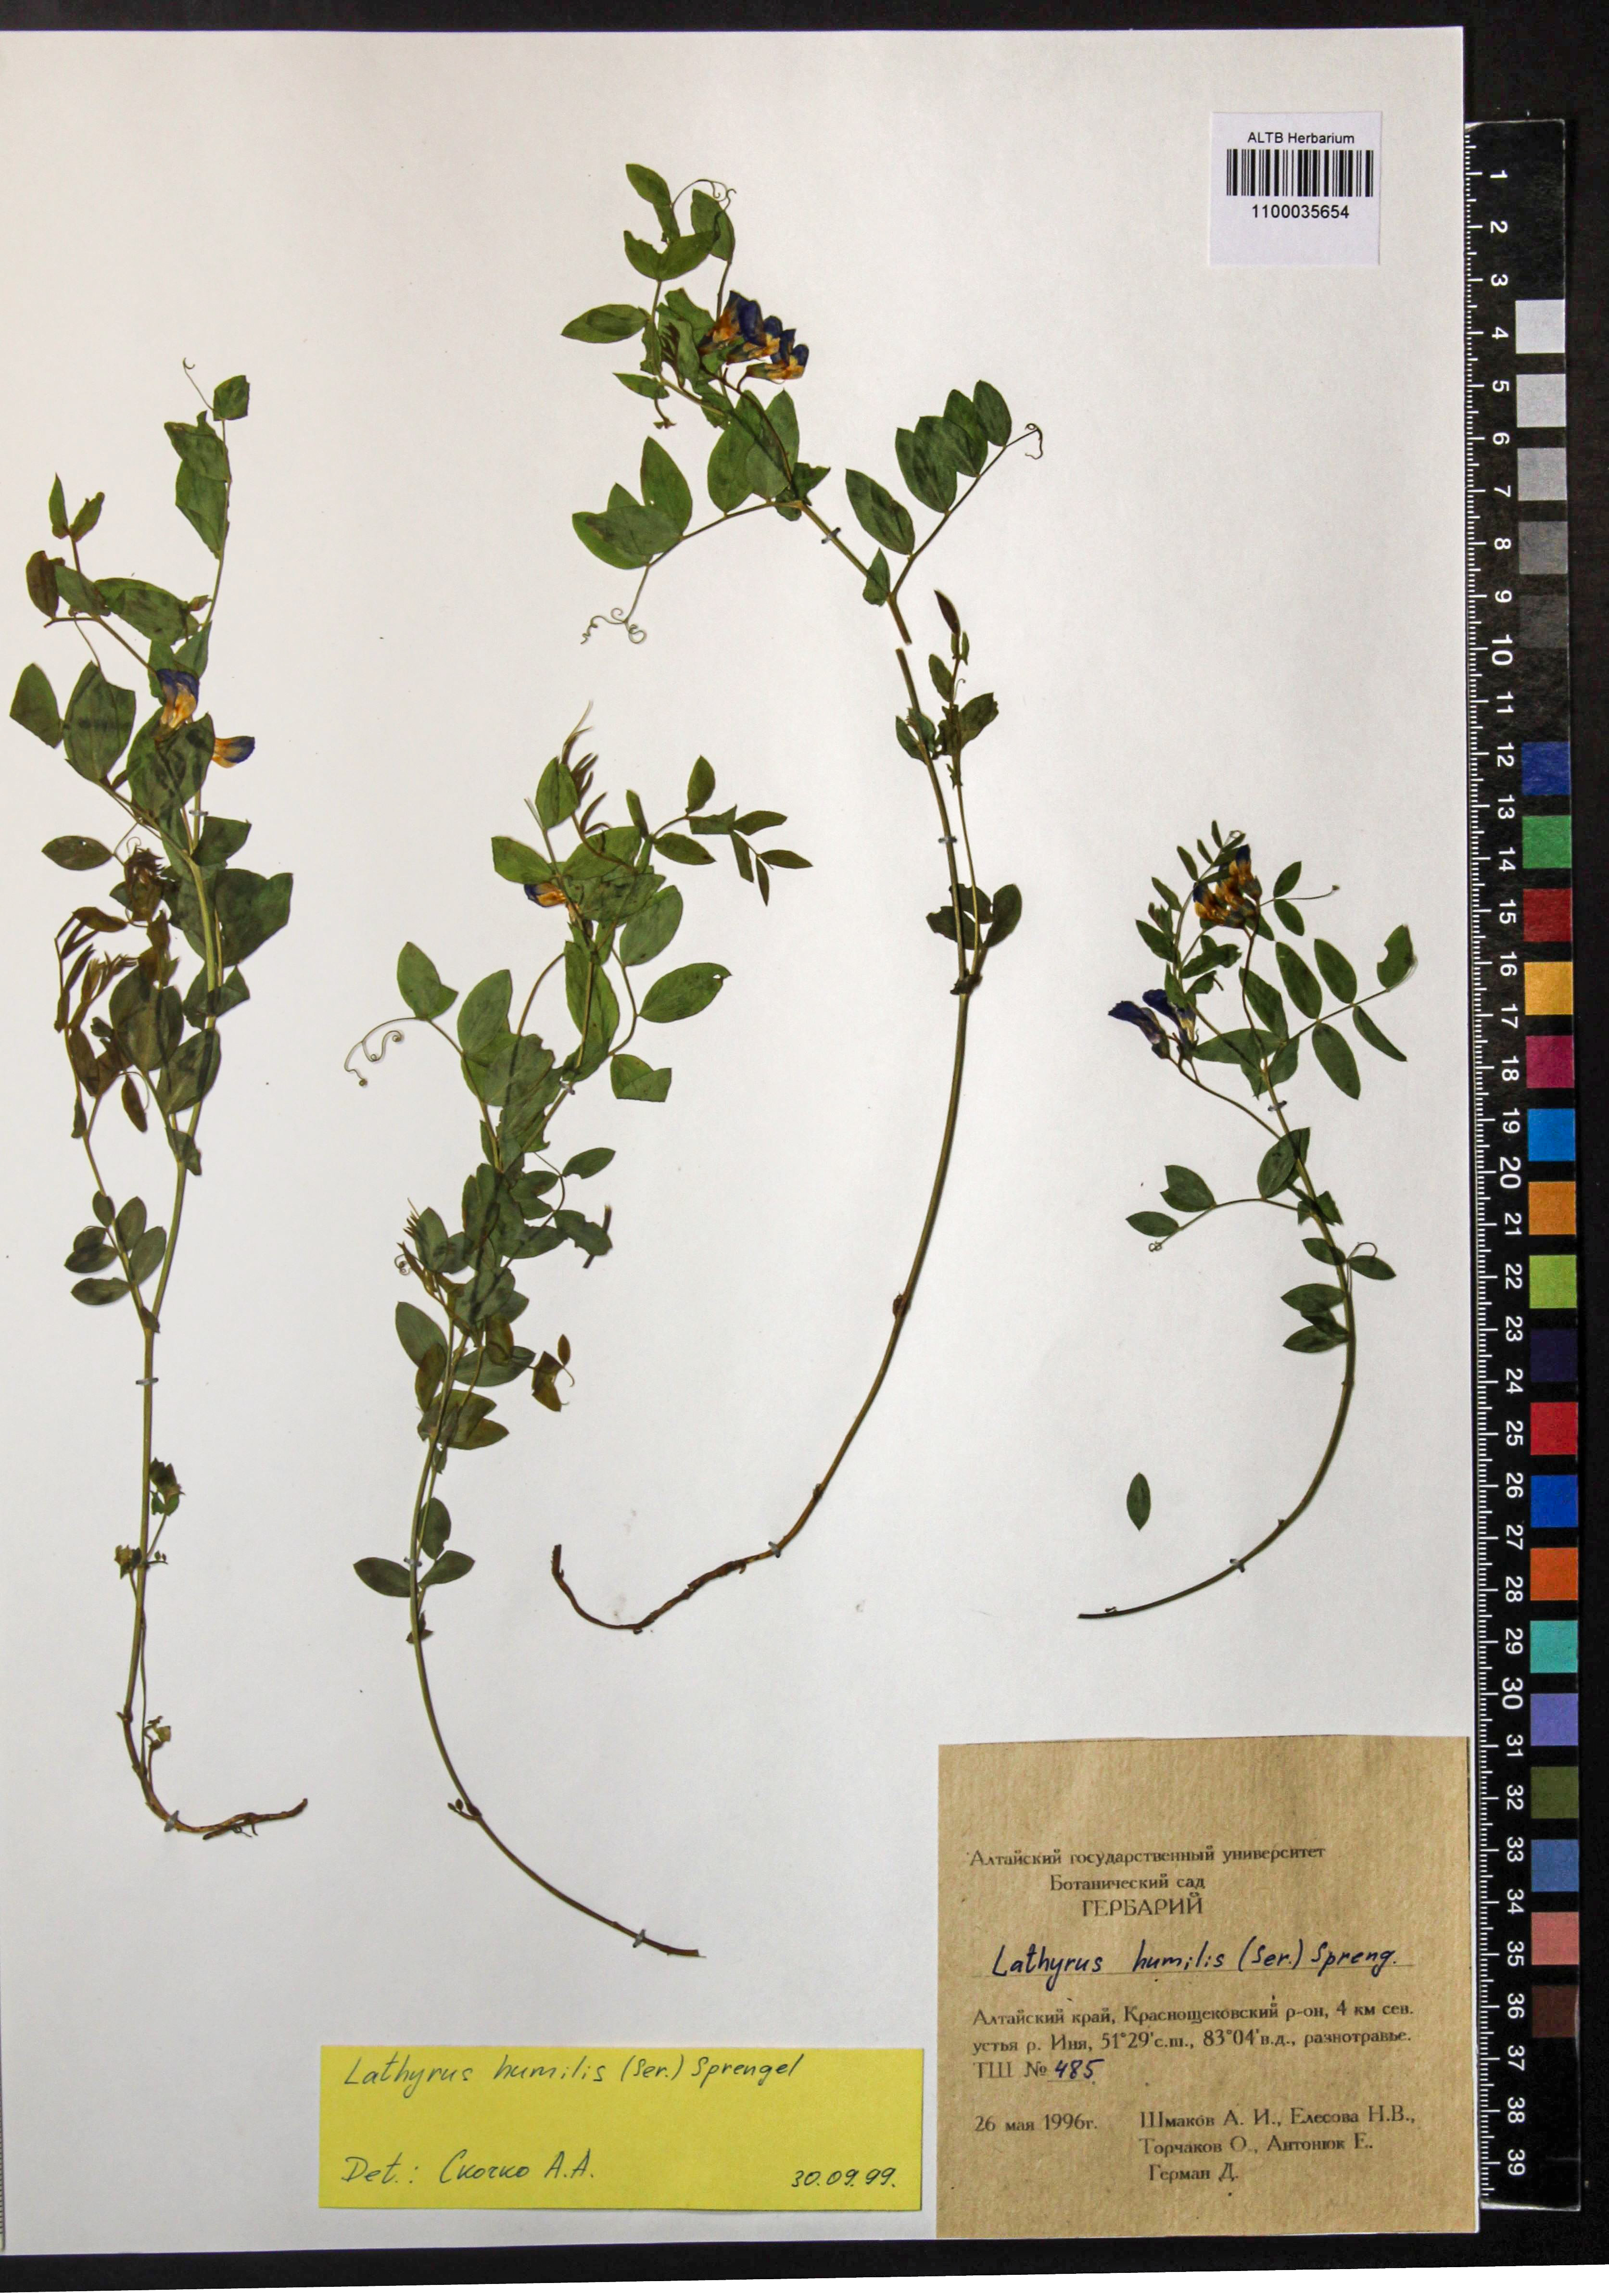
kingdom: Plantae
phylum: Tracheophyta
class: Magnoliopsida
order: Fabales
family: Fabaceae
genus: Lathyrus
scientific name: Lathyrus humilis
